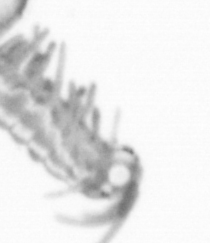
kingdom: Animalia
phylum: Annelida
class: Polychaeta
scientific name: Polychaeta
